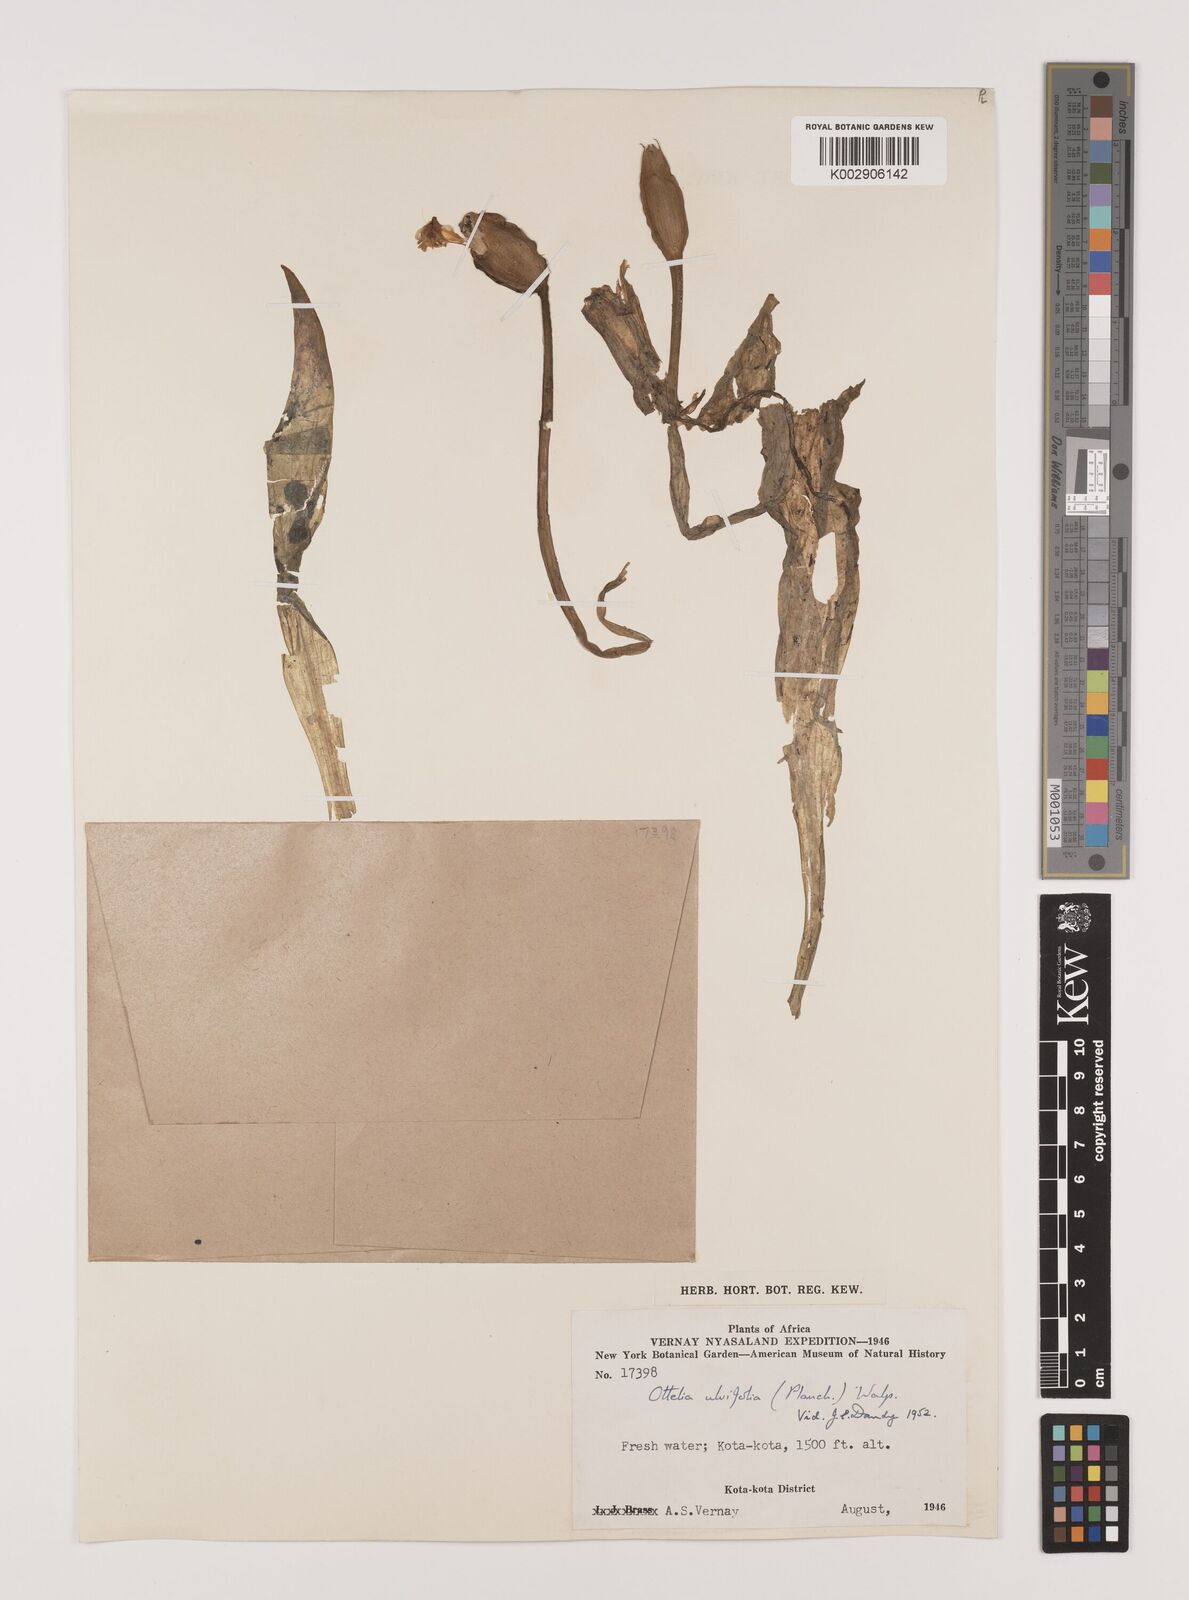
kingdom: Plantae
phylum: Tracheophyta
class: Liliopsida
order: Alismatales
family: Hydrocharitaceae
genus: Ottelia
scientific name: Ottelia ulvifolia
